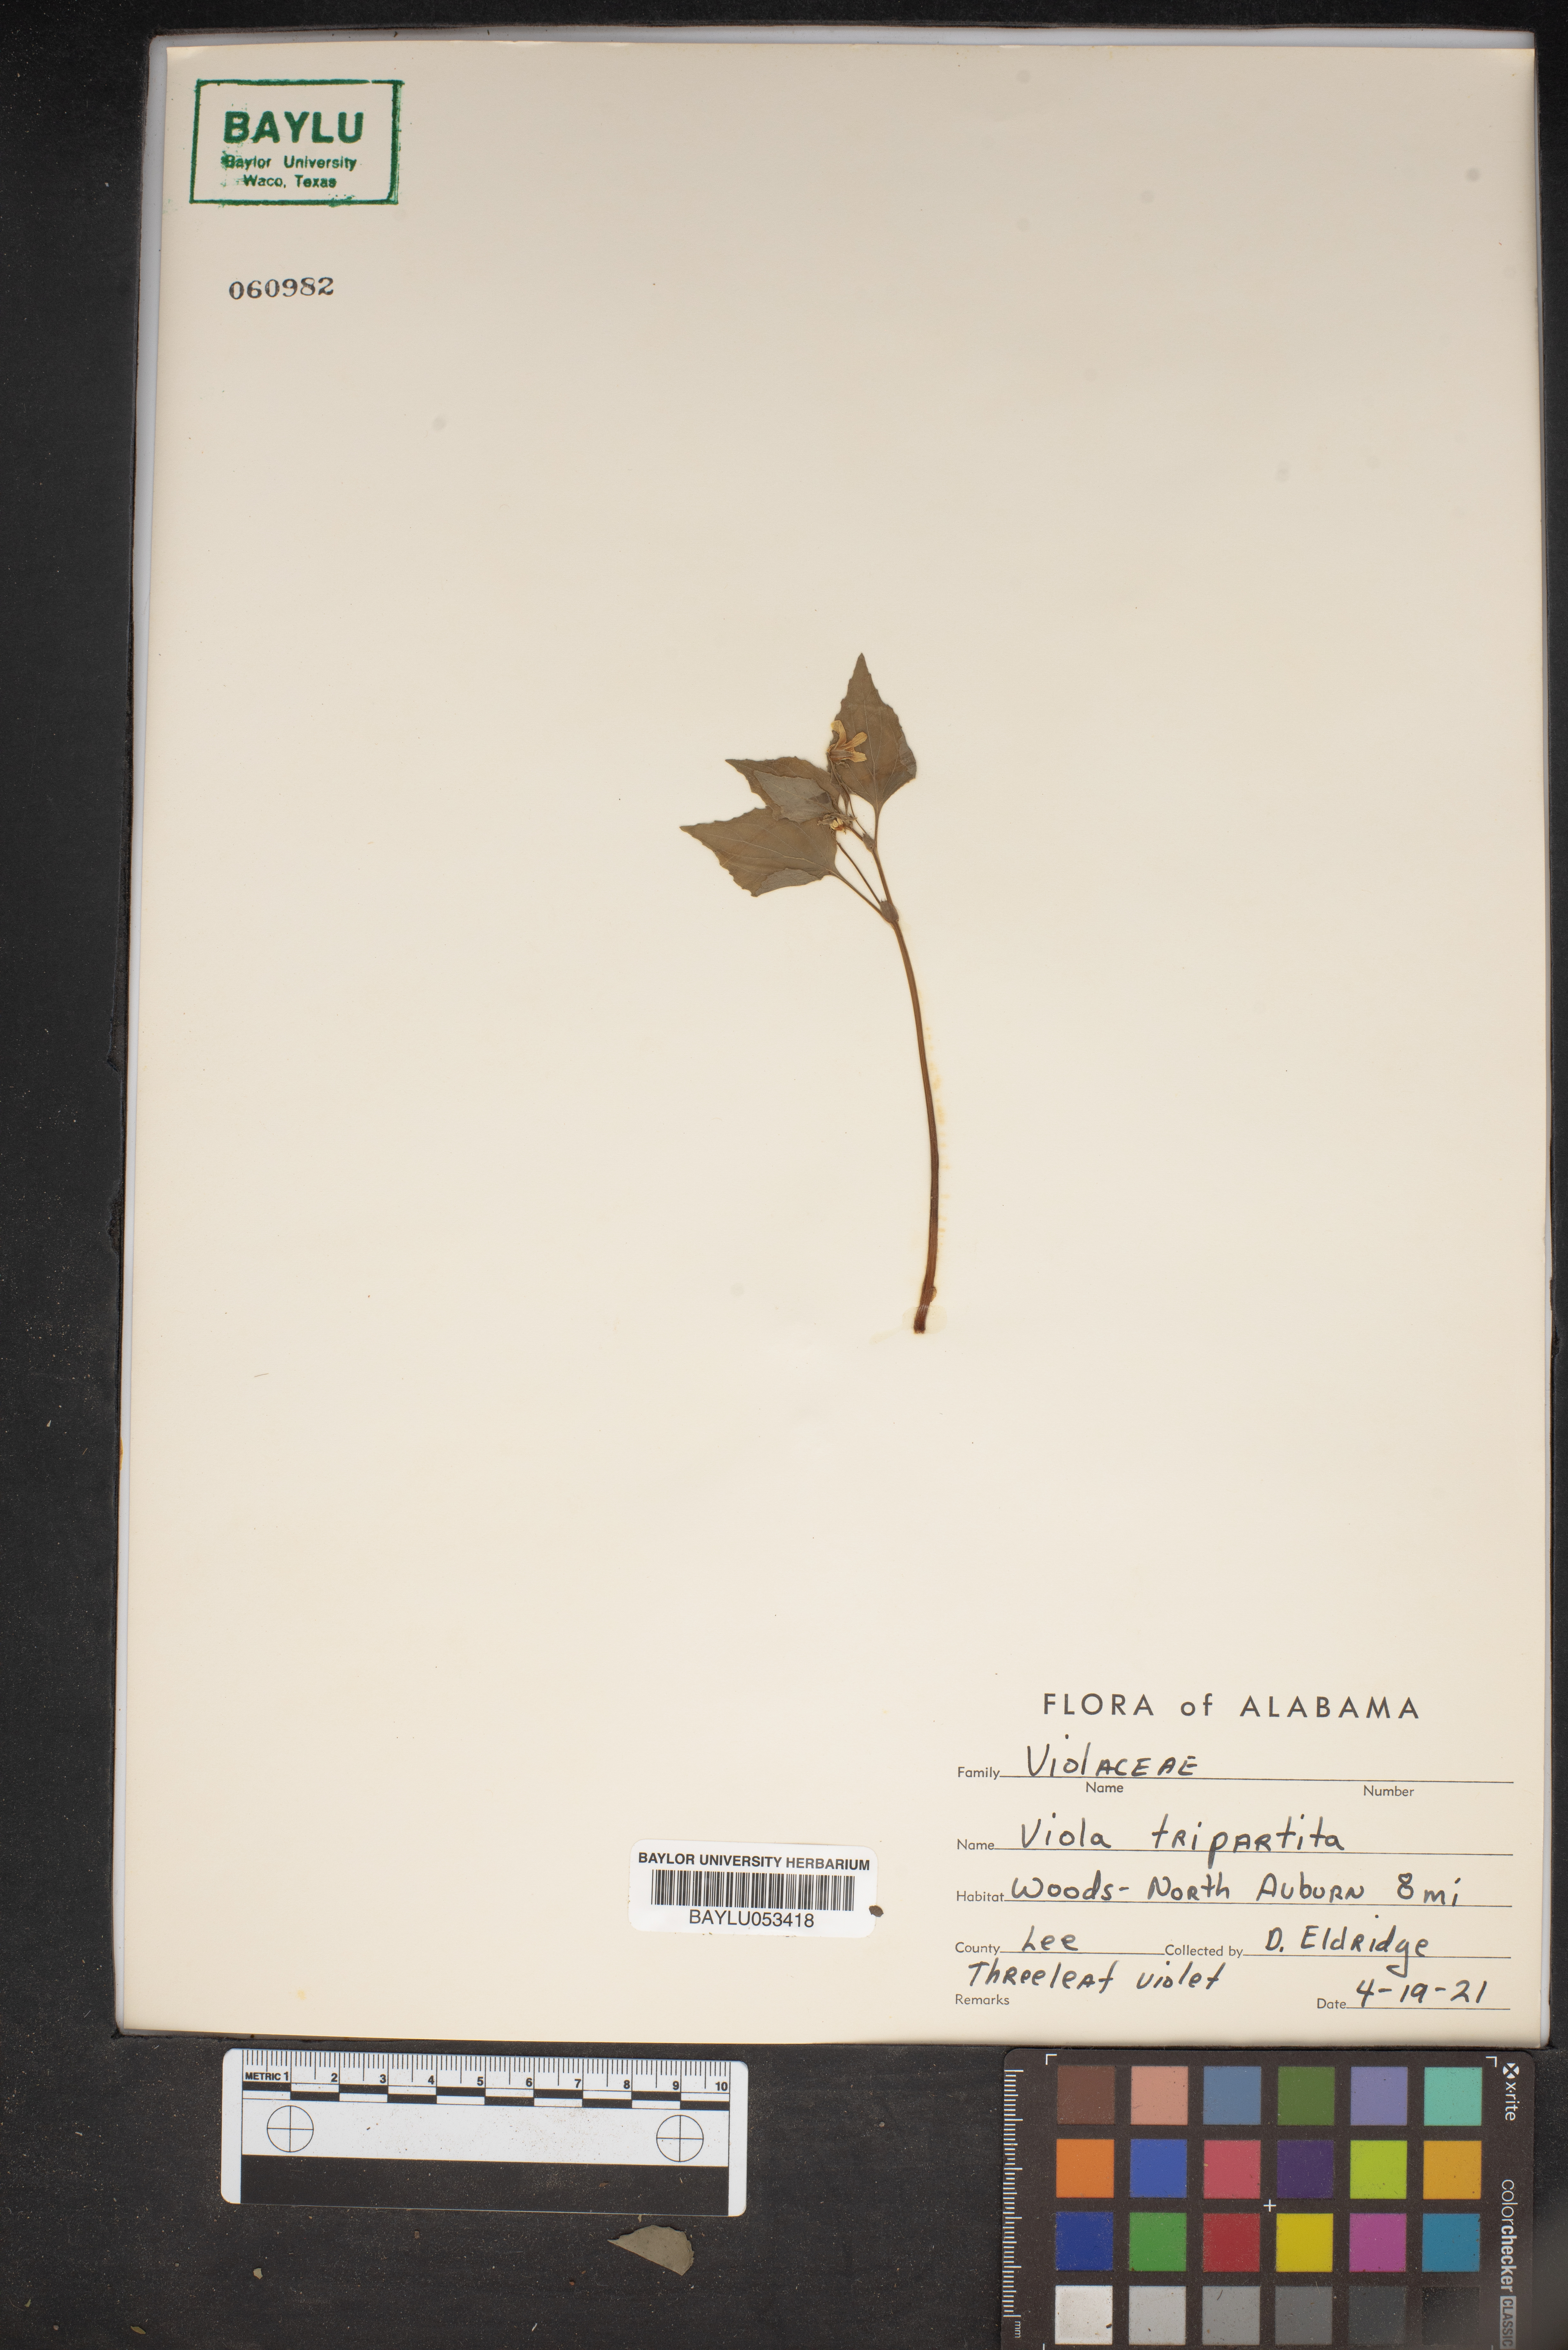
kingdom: Plantae
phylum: Tracheophyta
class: Magnoliopsida
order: Malpighiales
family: Violaceae
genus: Viola
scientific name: Viola tripartita
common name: Three-part violet
